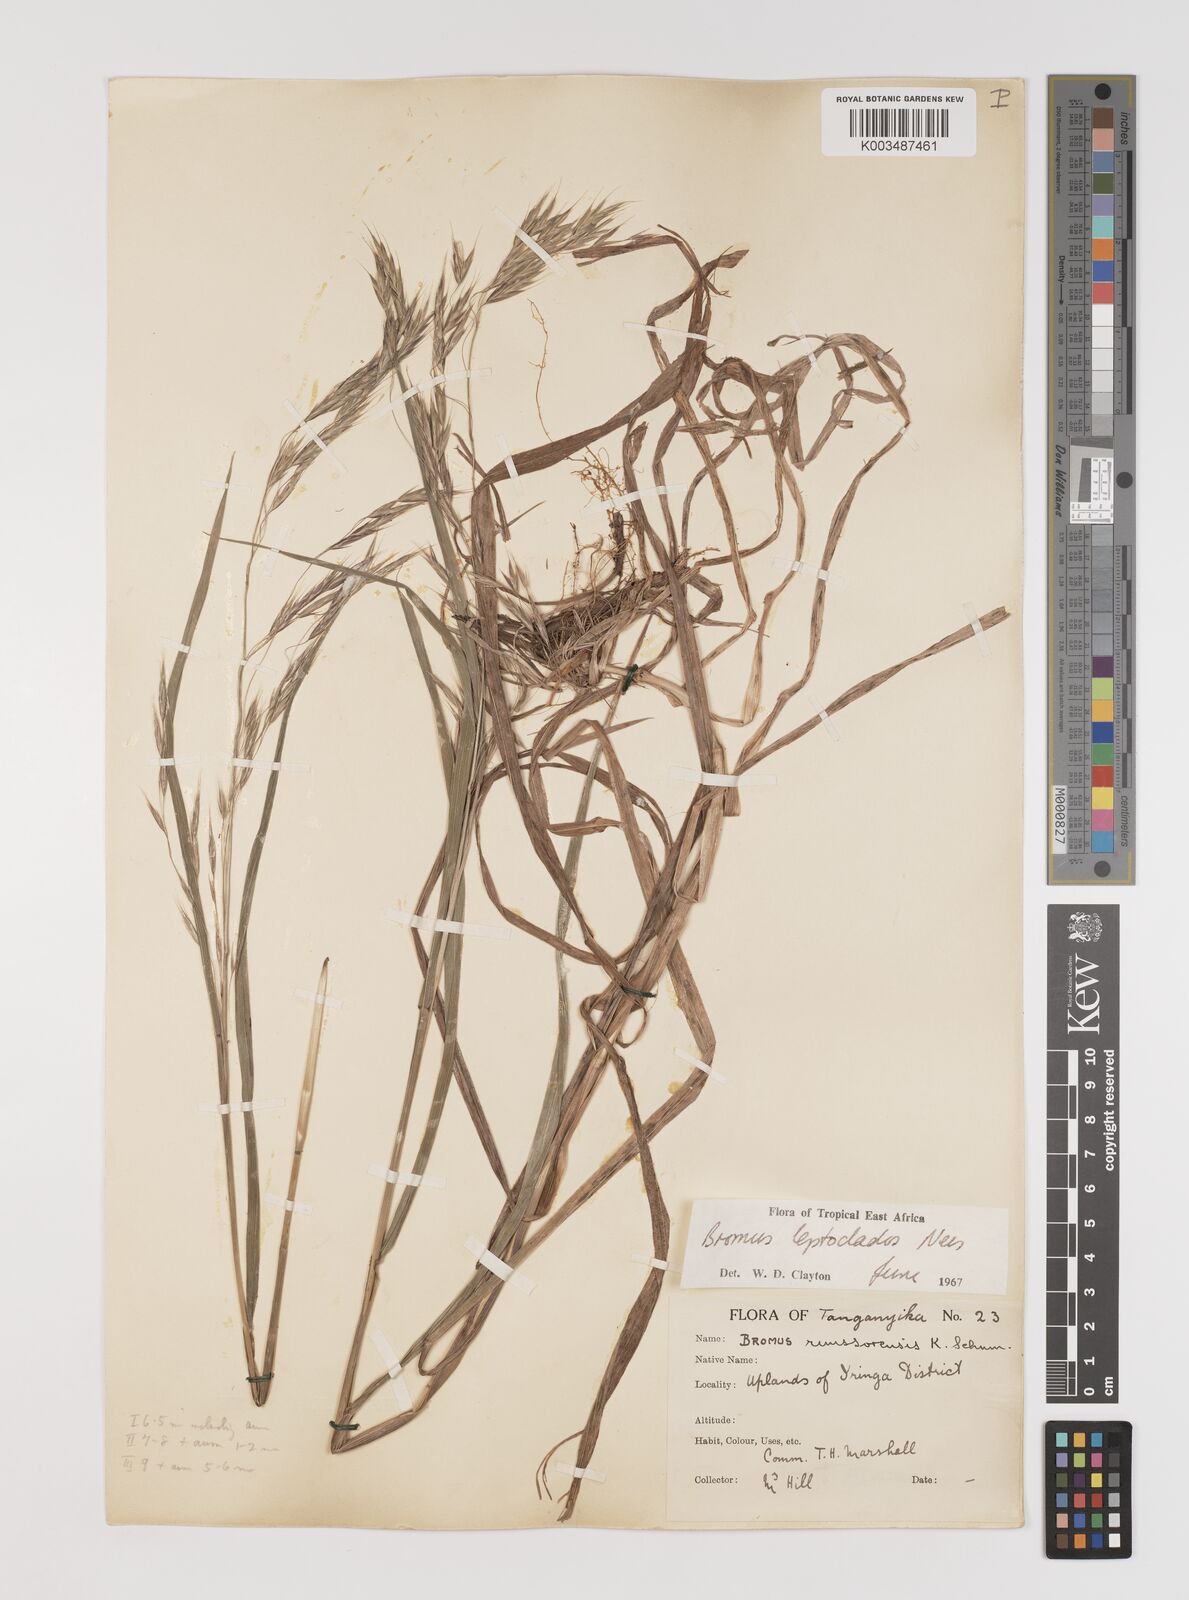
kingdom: Plantae
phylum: Tracheophyta
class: Liliopsida
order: Poales
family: Poaceae
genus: Bromus
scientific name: Bromus leptoclados
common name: Mountain bromegrass
